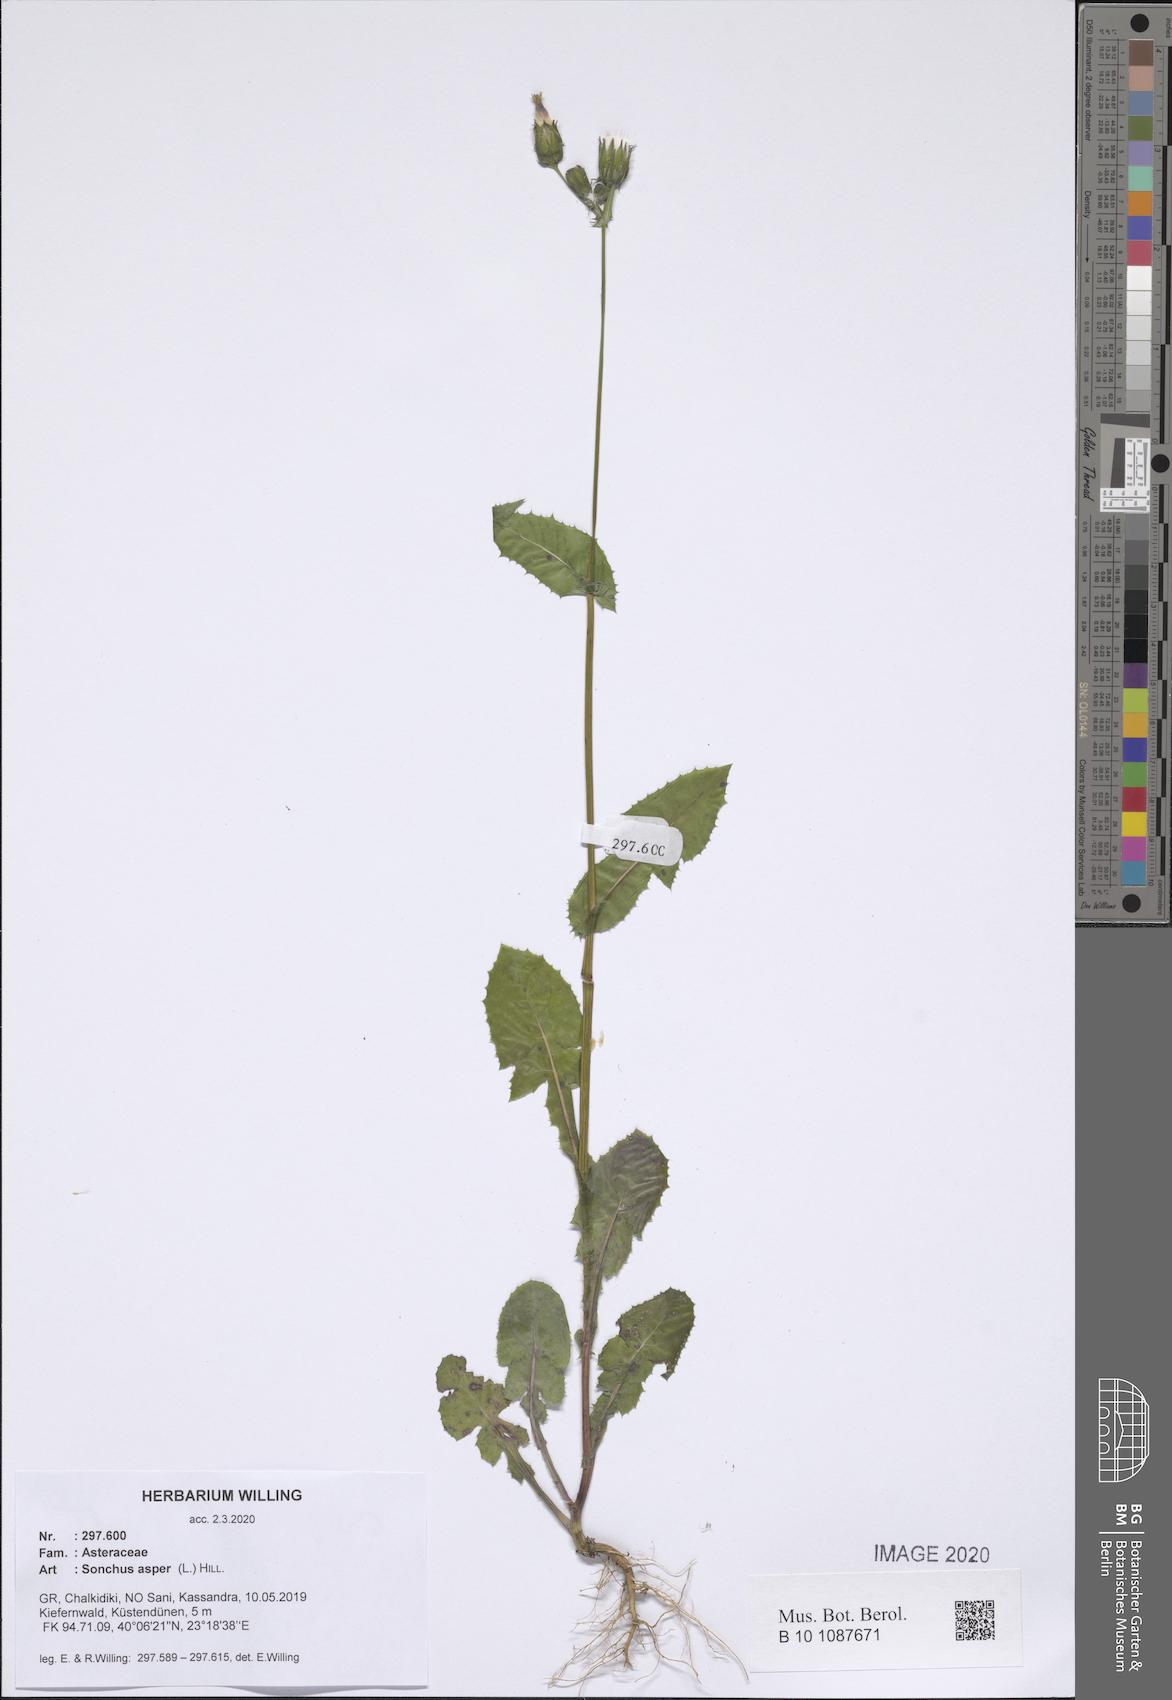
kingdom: Plantae
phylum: Tracheophyta
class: Magnoliopsida
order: Asterales
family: Asteraceae
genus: Sonchus
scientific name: Sonchus asper
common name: Prickly sow-thistle
